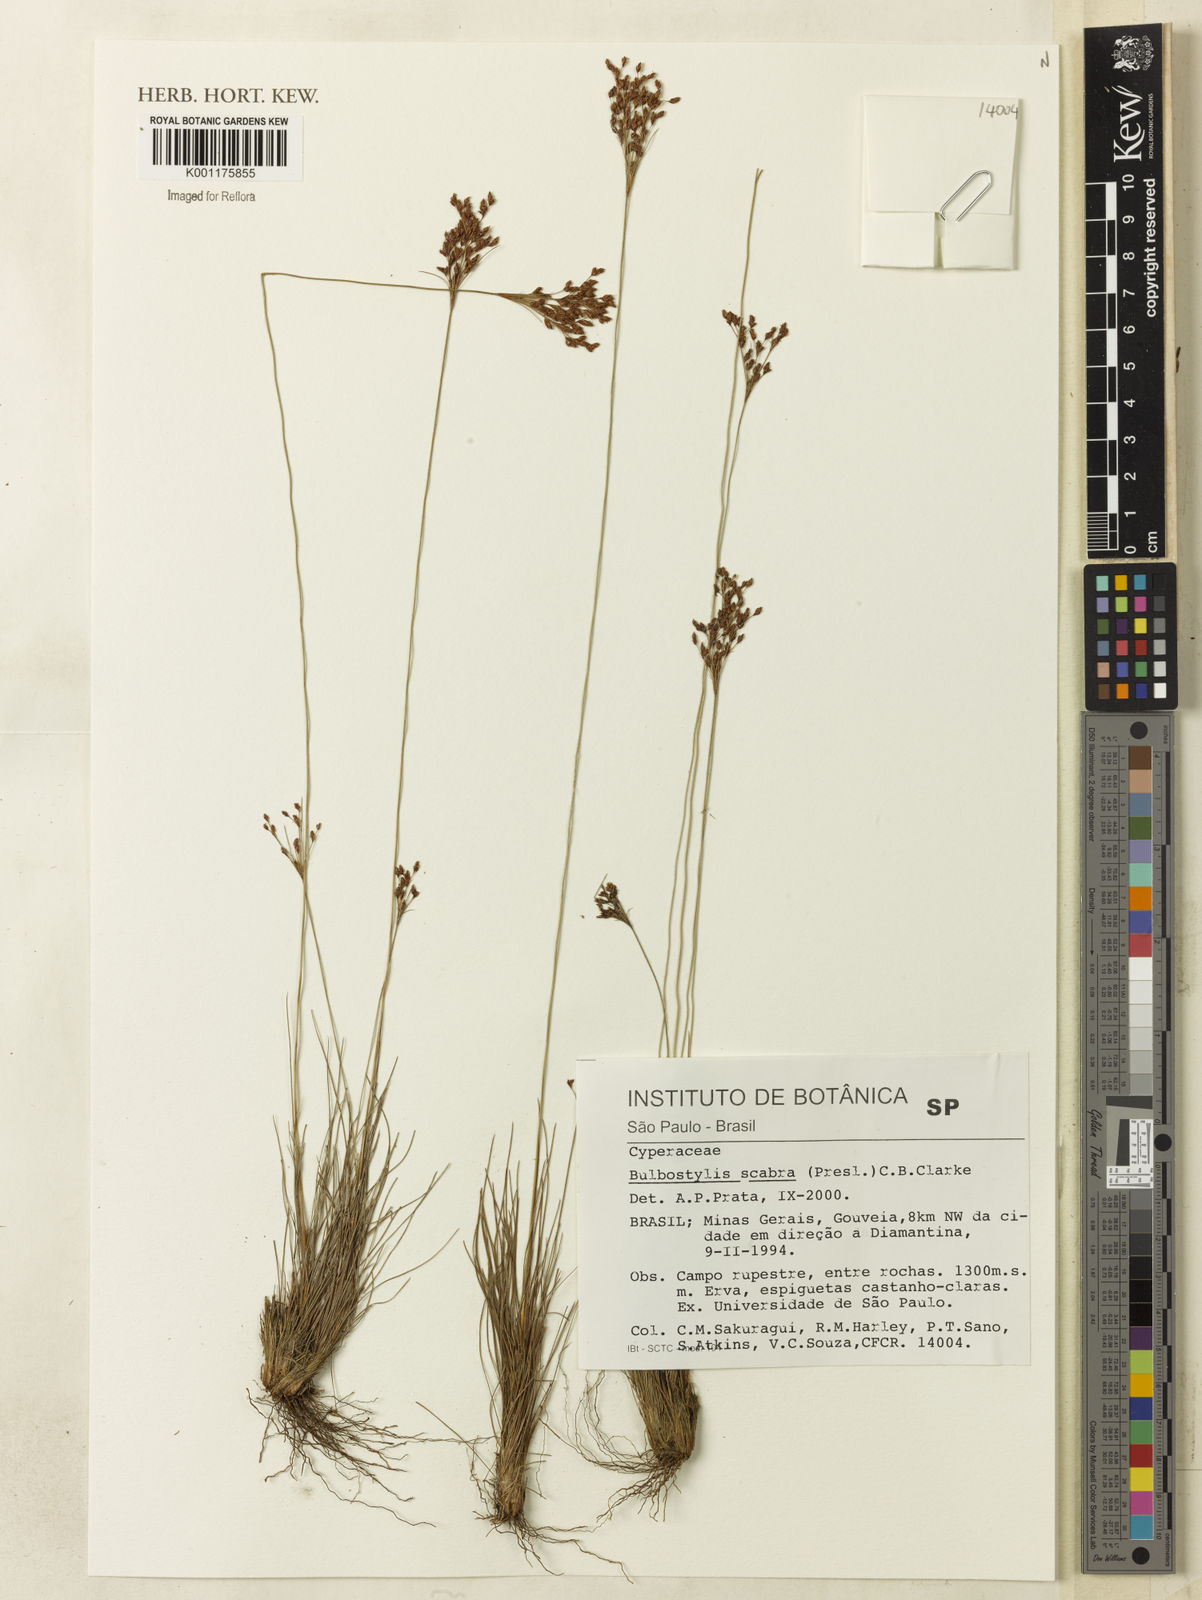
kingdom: Plantae
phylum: Tracheophyta
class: Liliopsida
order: Poales
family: Cyperaceae
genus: Bulbostylis
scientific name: Bulbostylis scabra
